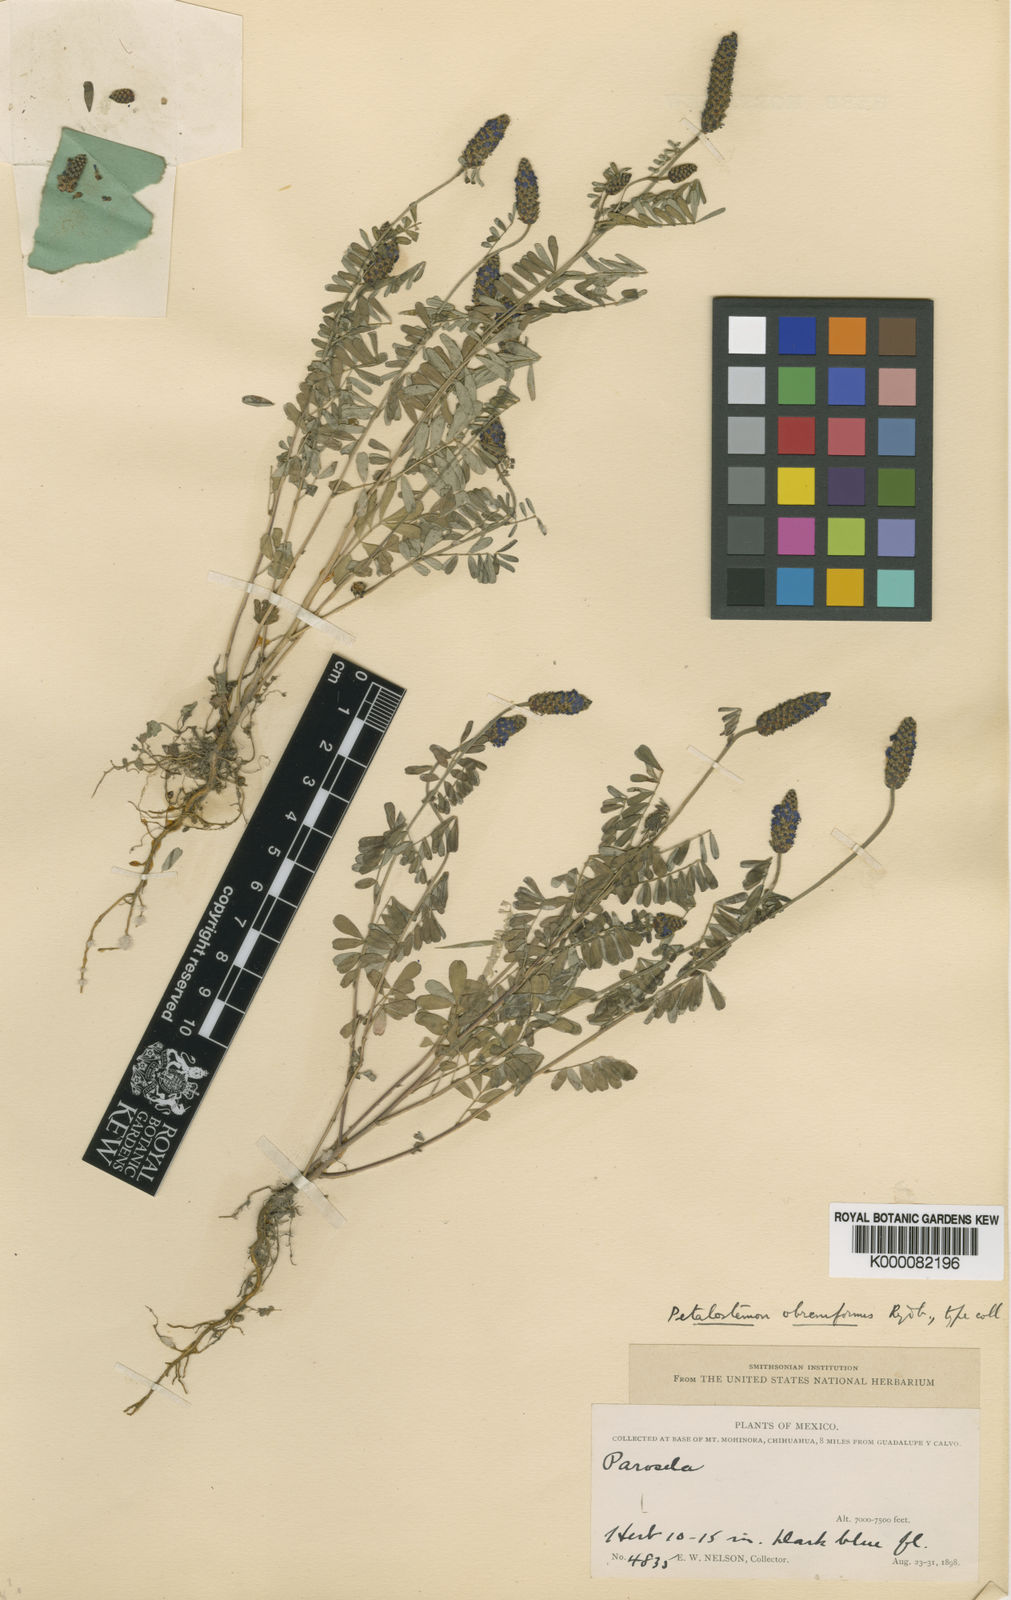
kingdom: Plantae
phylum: Tracheophyta
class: Magnoliopsida
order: Fabales
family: Fabaceae
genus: Dalea
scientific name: Dalea obreniformis
